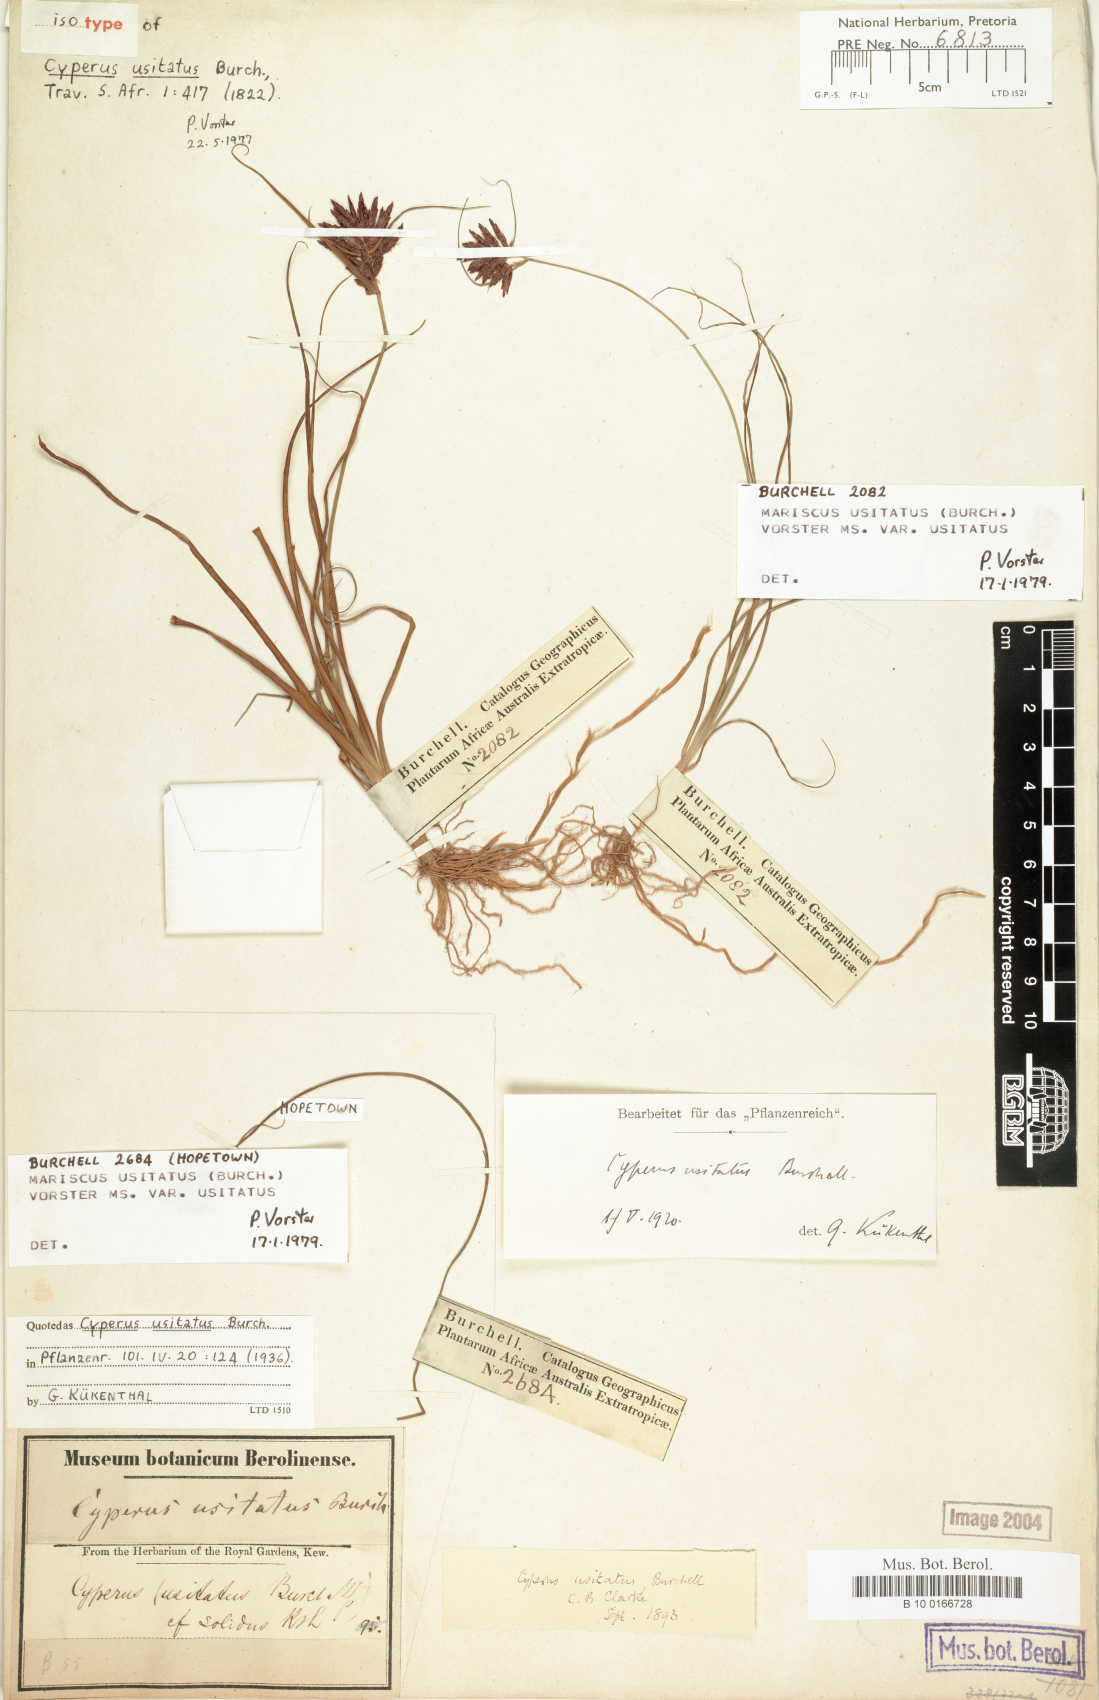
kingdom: Plantae
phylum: Tracheophyta
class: Liliopsida
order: Poales
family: Cyperaceae
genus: Cyperus
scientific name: Cyperus usitatus
